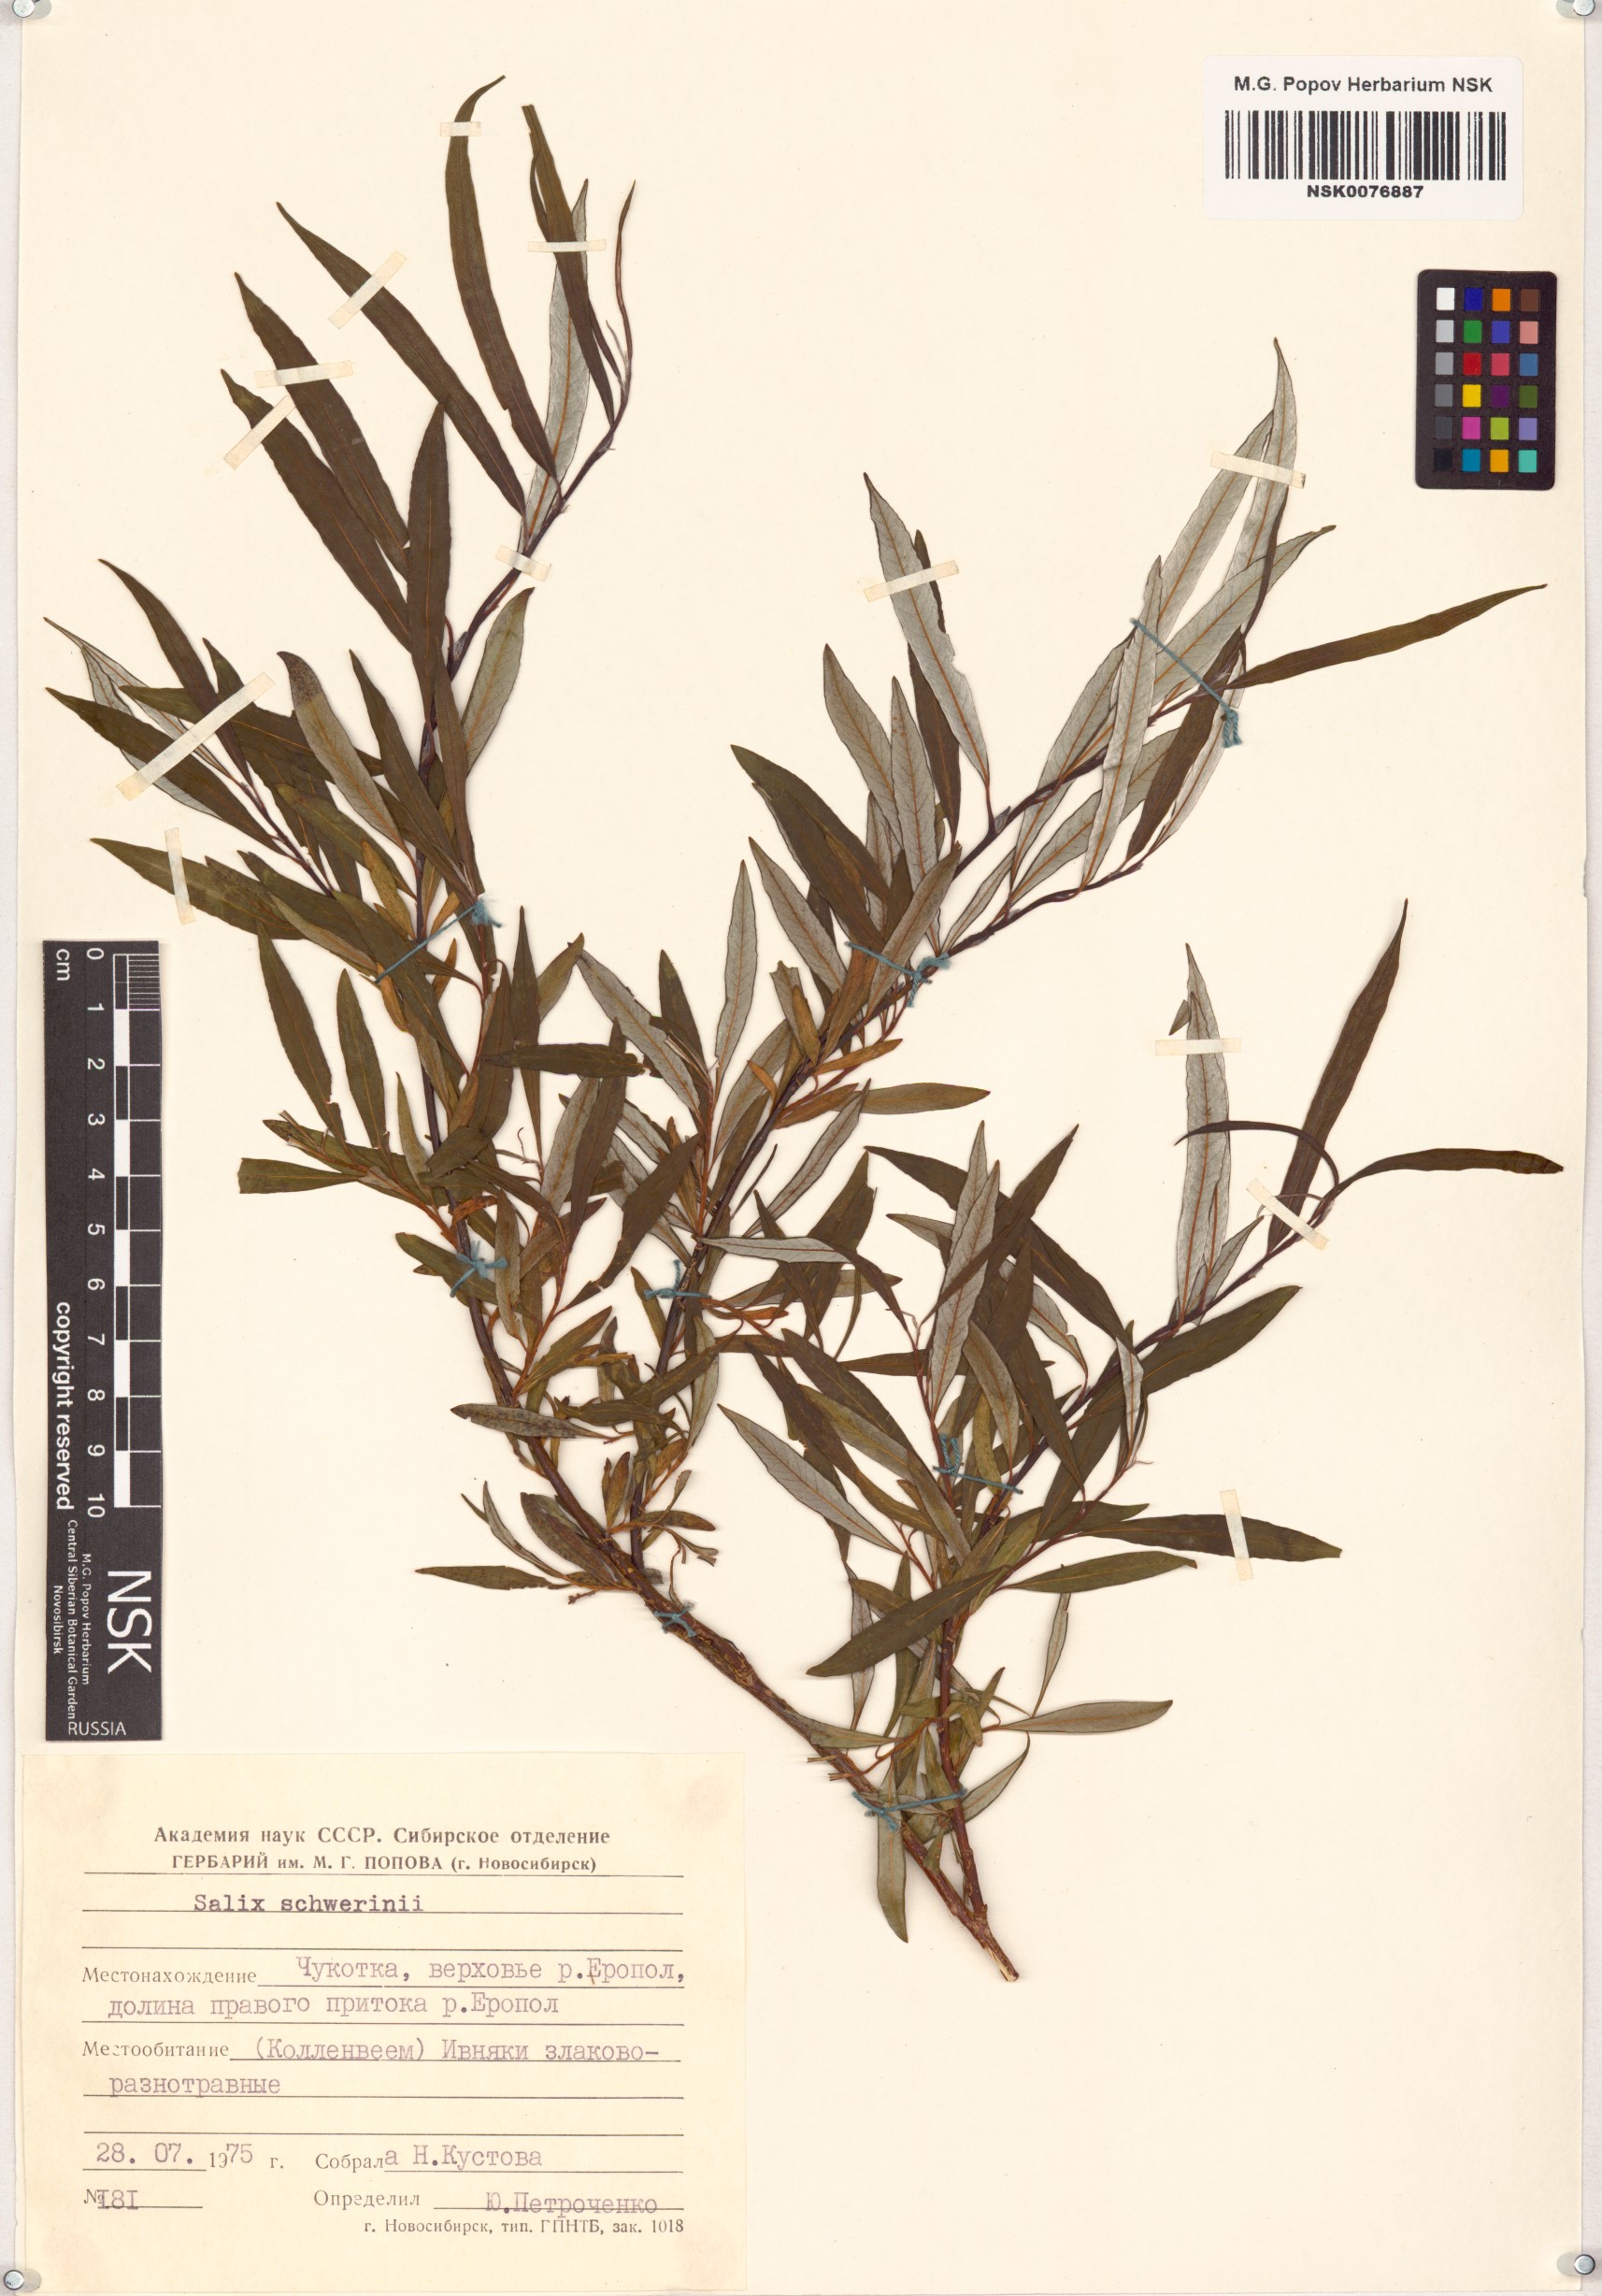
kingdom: Plantae
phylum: Tracheophyta
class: Magnoliopsida
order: Malpighiales
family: Salicaceae
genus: Salix
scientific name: Salix schwerinii
